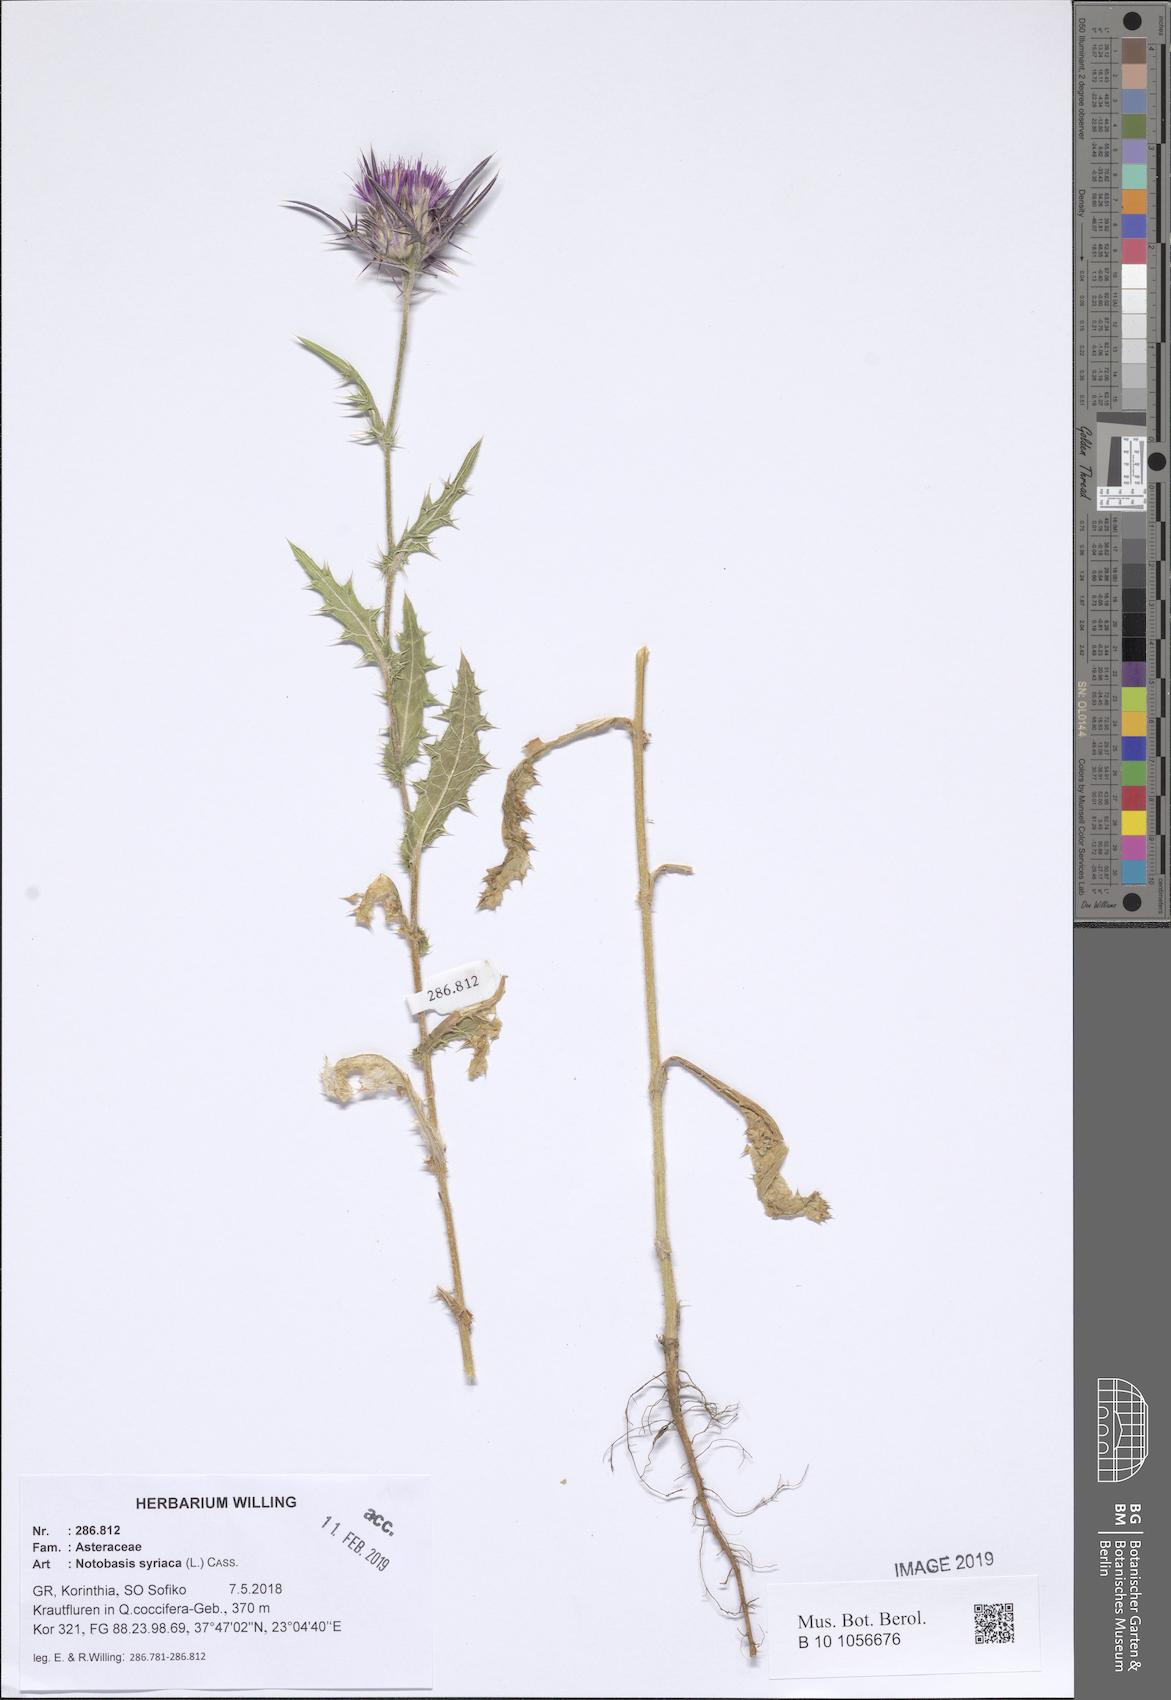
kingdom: Plantae
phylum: Tracheophyta
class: Magnoliopsida
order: Asterales
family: Asteraceae
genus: Notobasis
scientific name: Notobasis syriaca
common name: Syrian thistle
